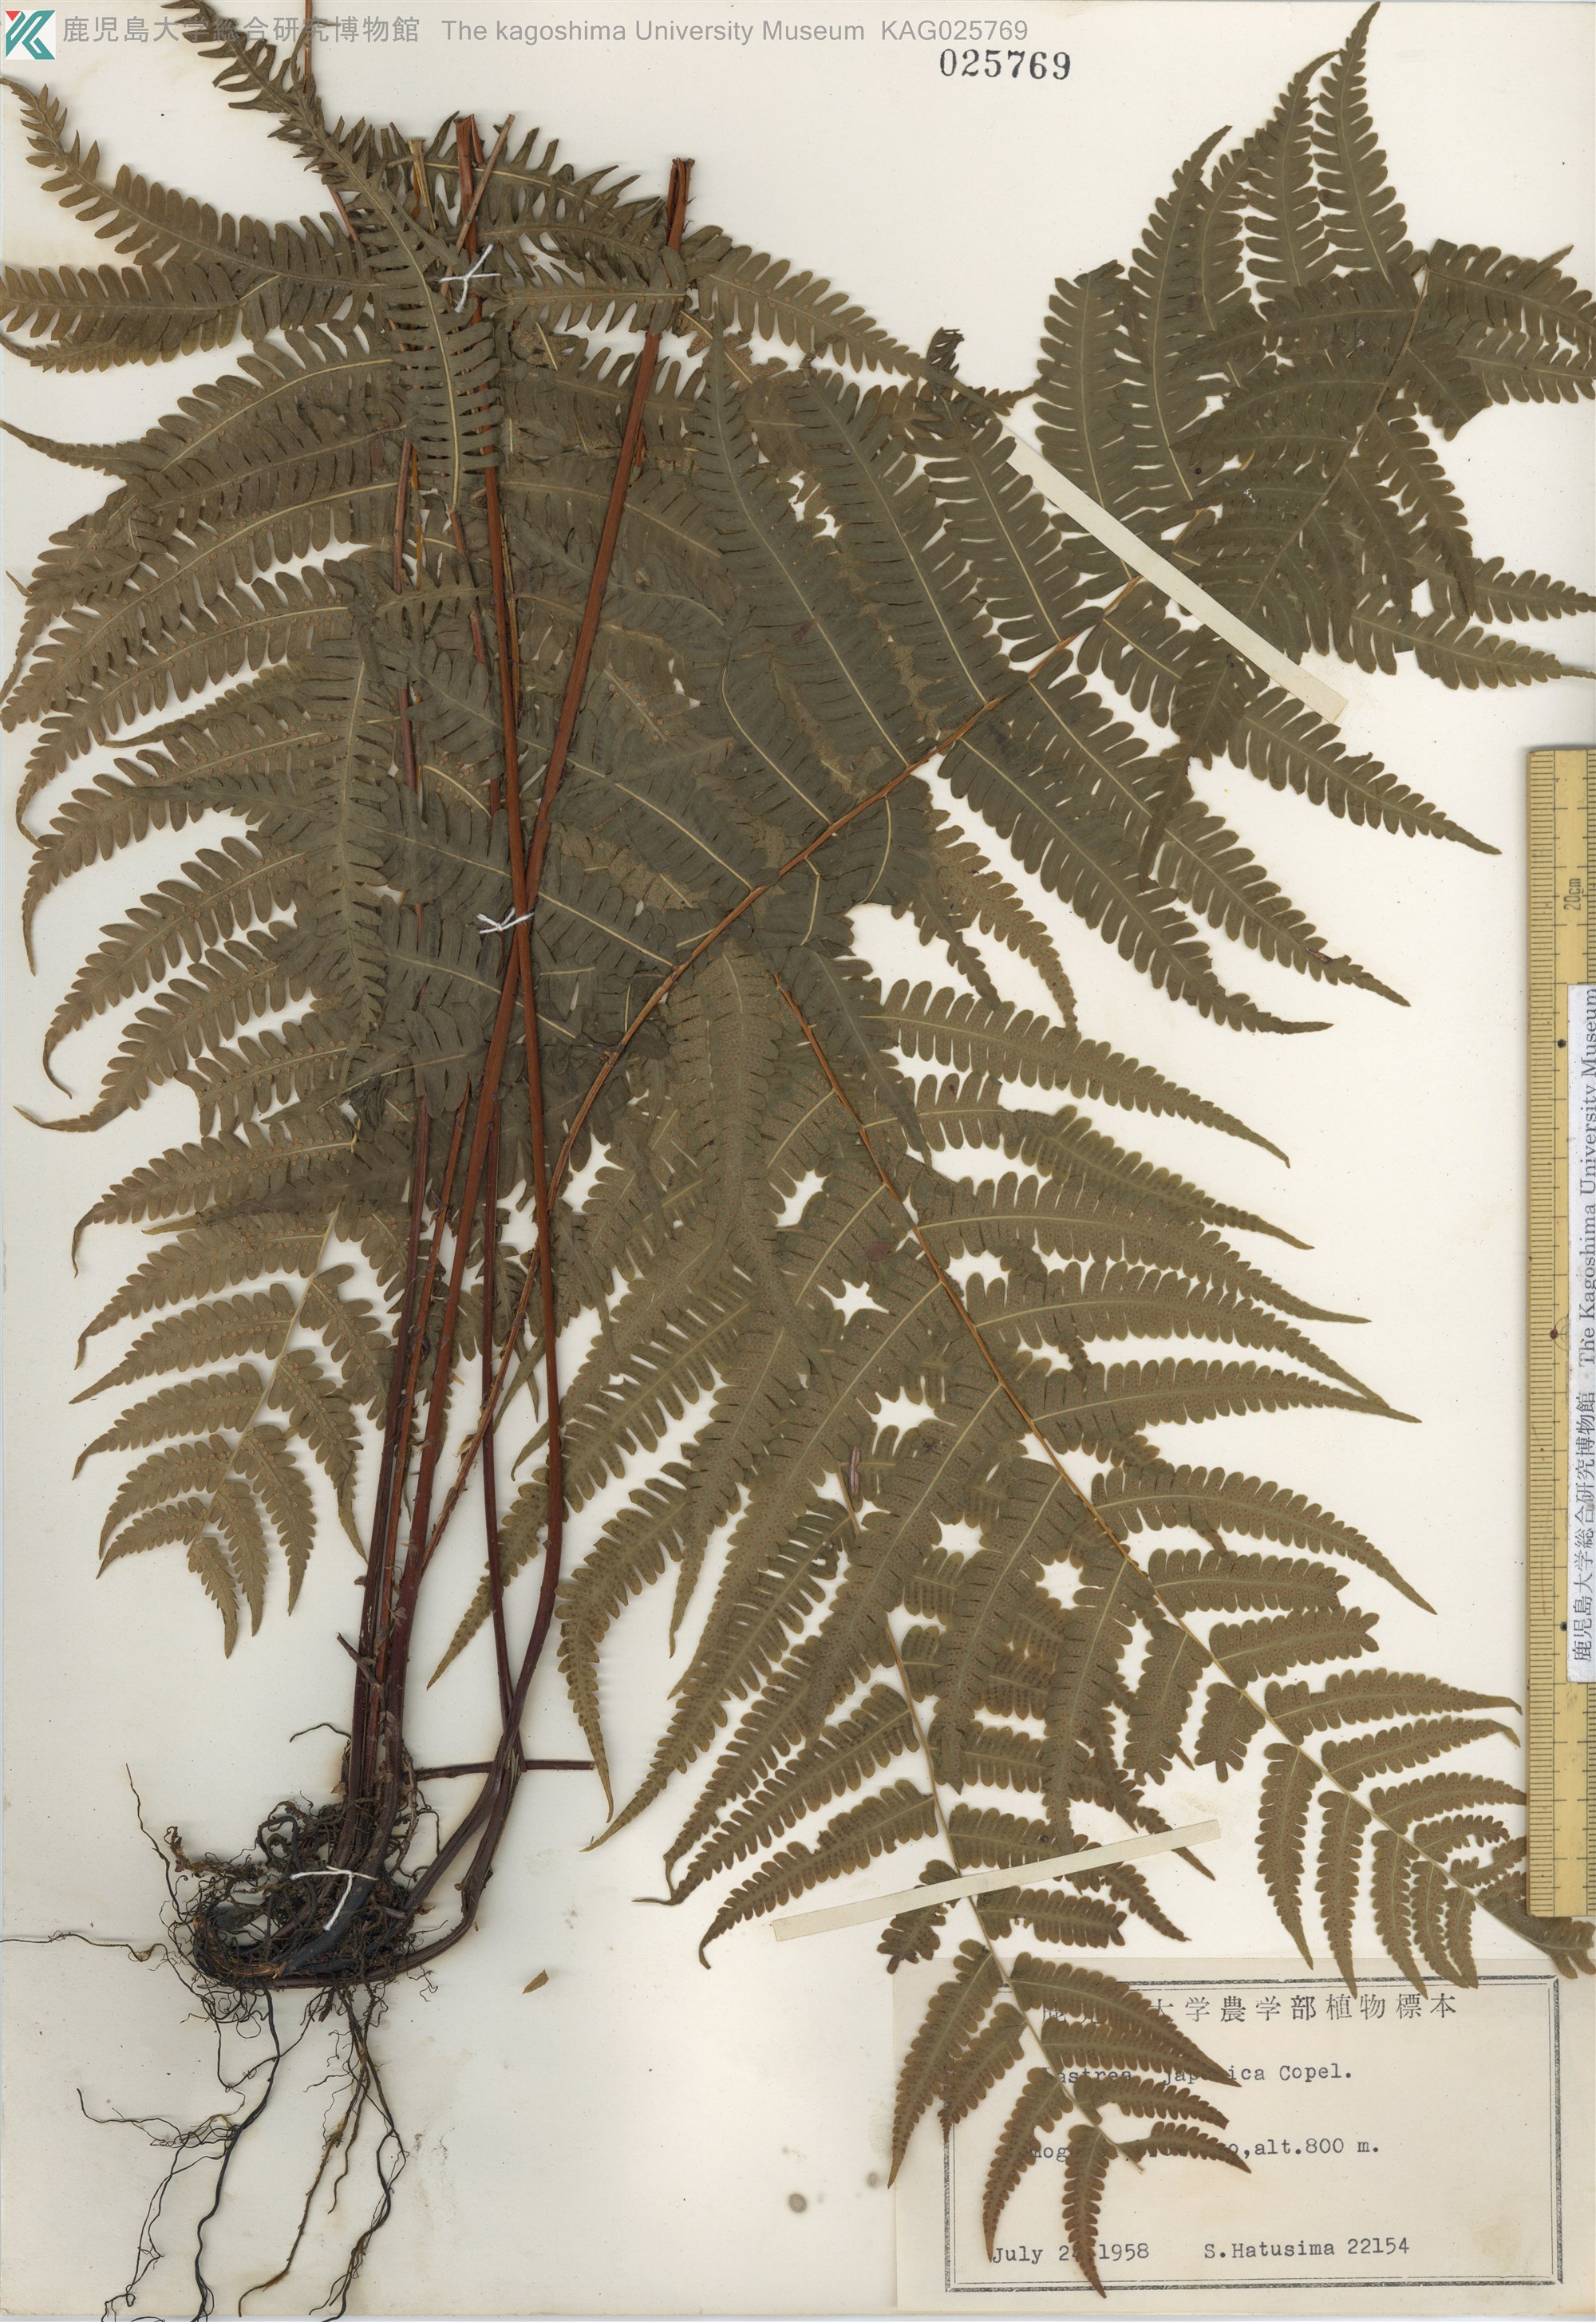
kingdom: Plantae
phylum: Tracheophyta
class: Polypodiopsida
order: Polypodiales
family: Thelypteridaceae
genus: Coryphopteris
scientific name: Coryphopteris japonica
